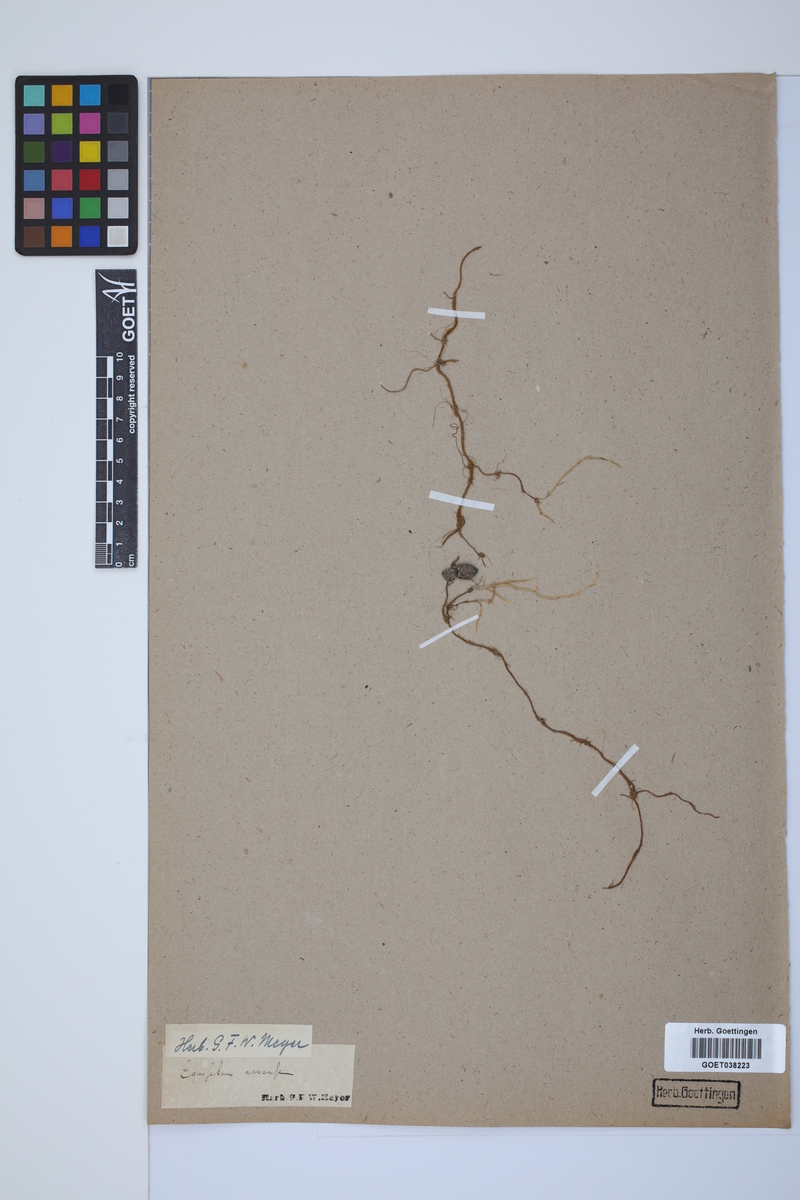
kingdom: Plantae
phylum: Tracheophyta
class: Polypodiopsida
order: Equisetales
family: Equisetaceae
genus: Equisetum
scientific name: Equisetum arvense
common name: Field horsetail
